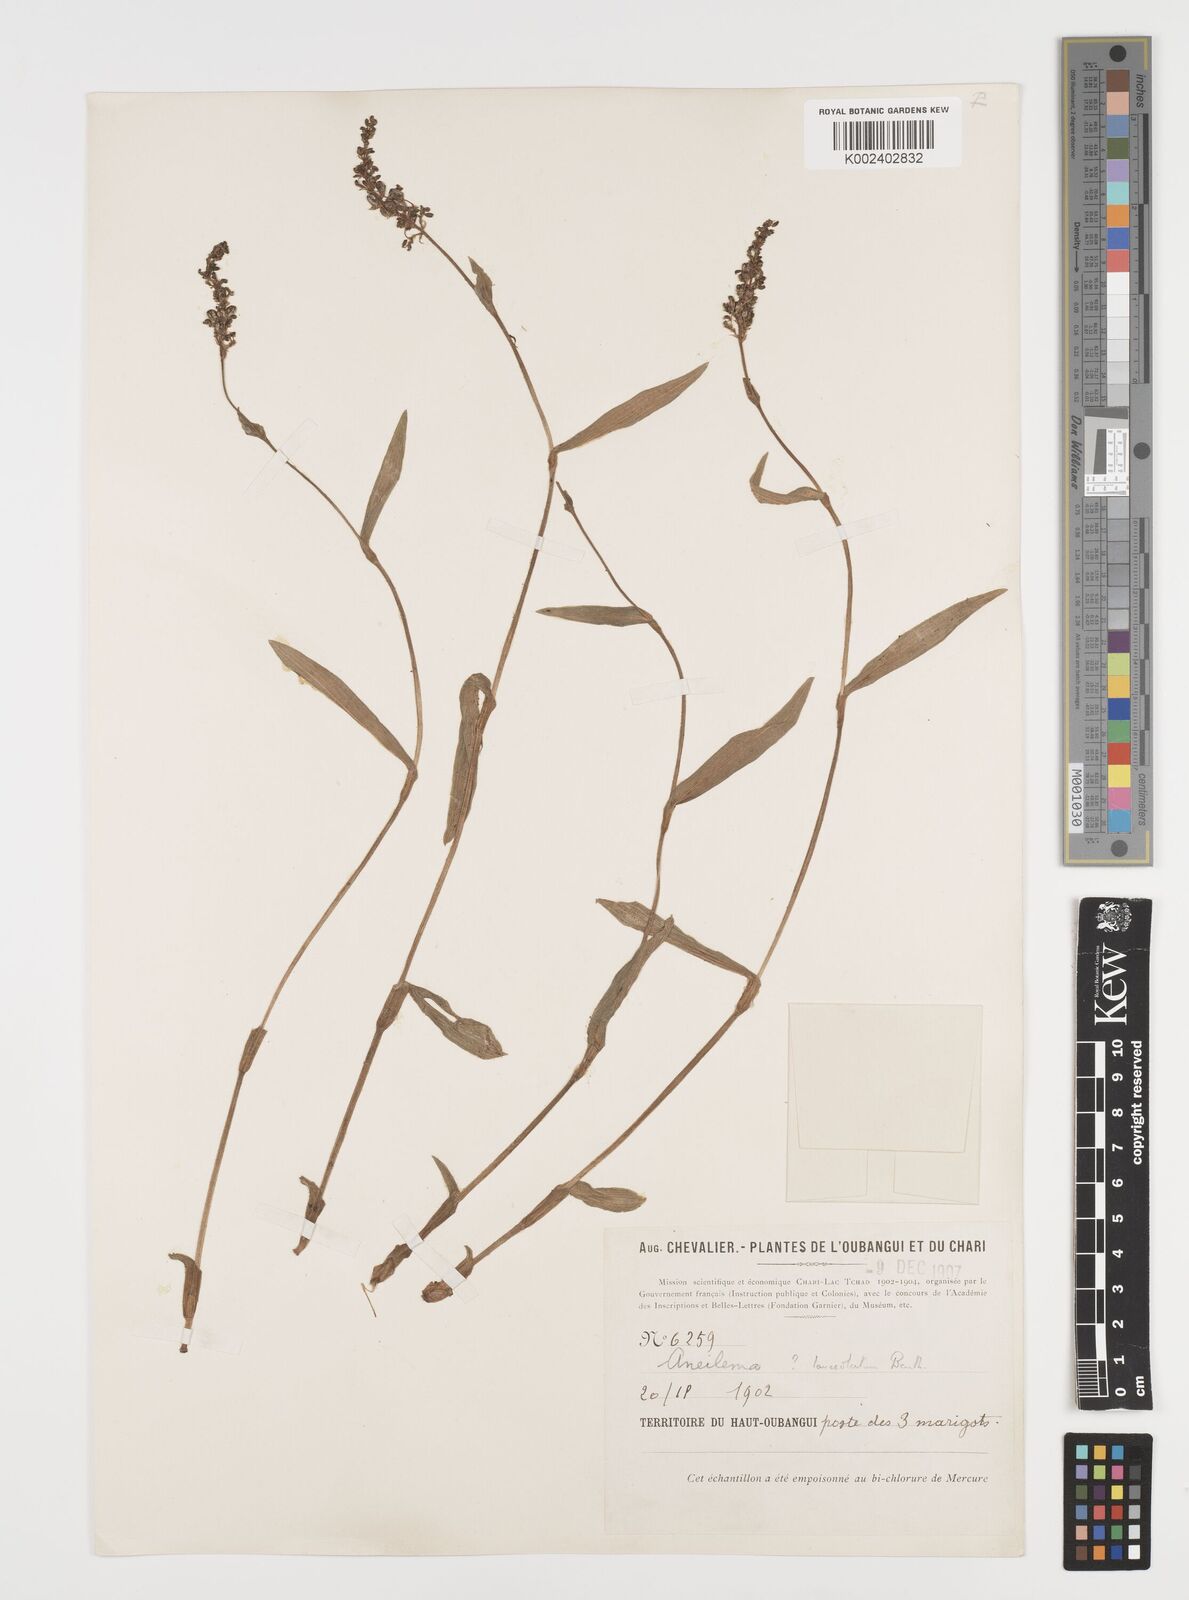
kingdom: Plantae
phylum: Tracheophyta
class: Liliopsida
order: Commelinales
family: Commelinaceae
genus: Aneilema
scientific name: Aneilema lanceolatum
